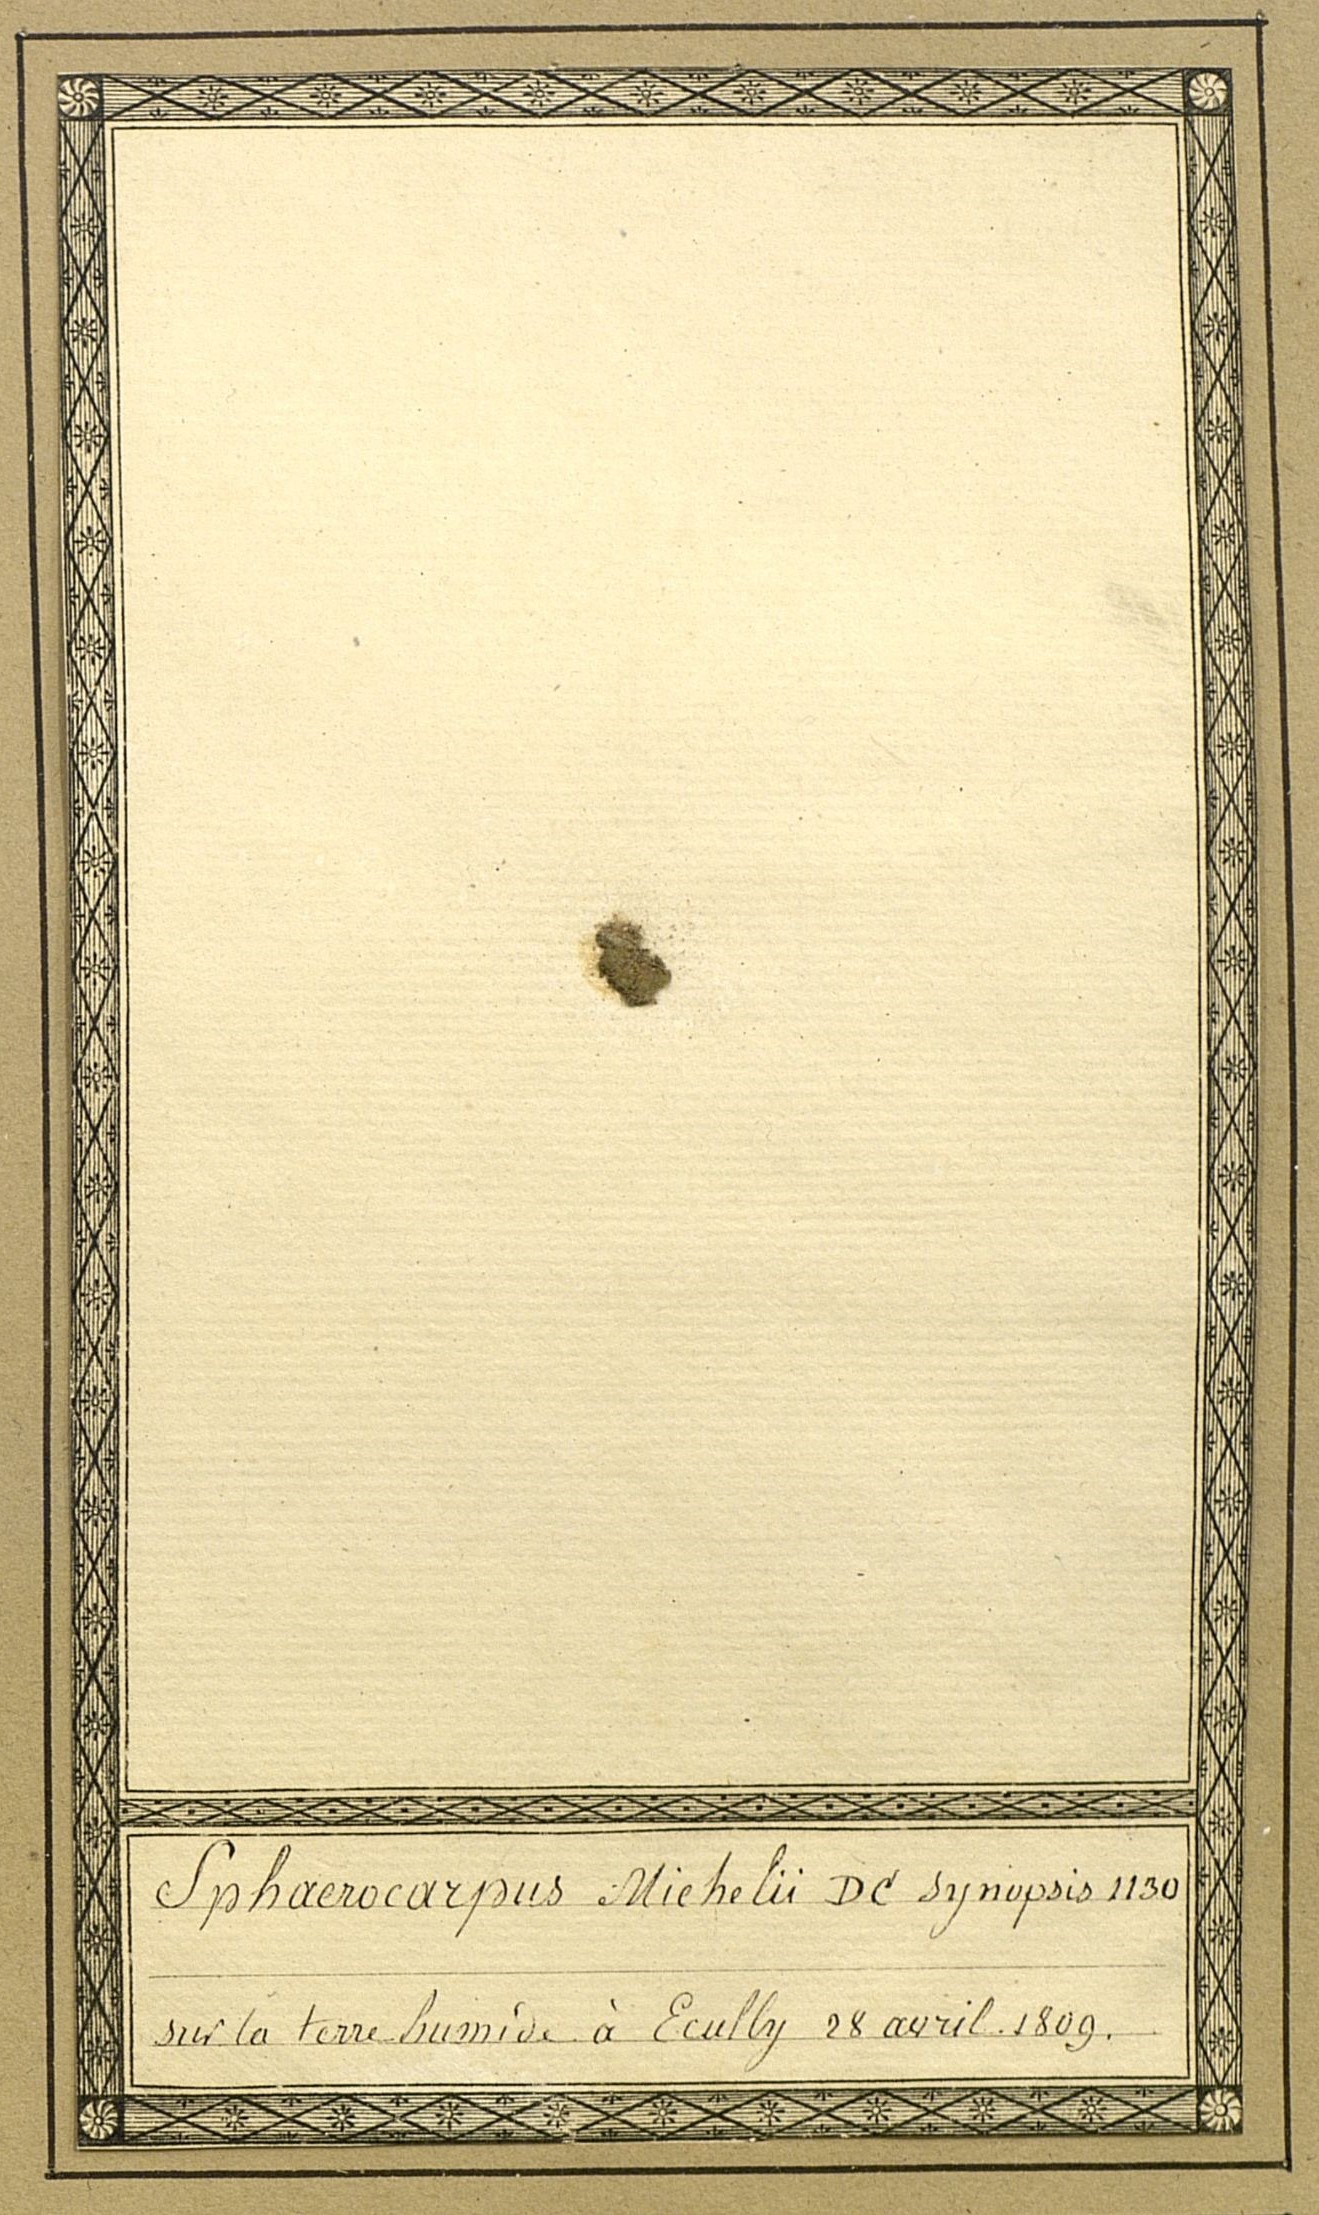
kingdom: Plantae
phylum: Charophyta
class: Zygnematophyceae
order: Zygnematales
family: Zygnemataceae
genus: Sphaerocarpus
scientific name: Sphaerocarpus
